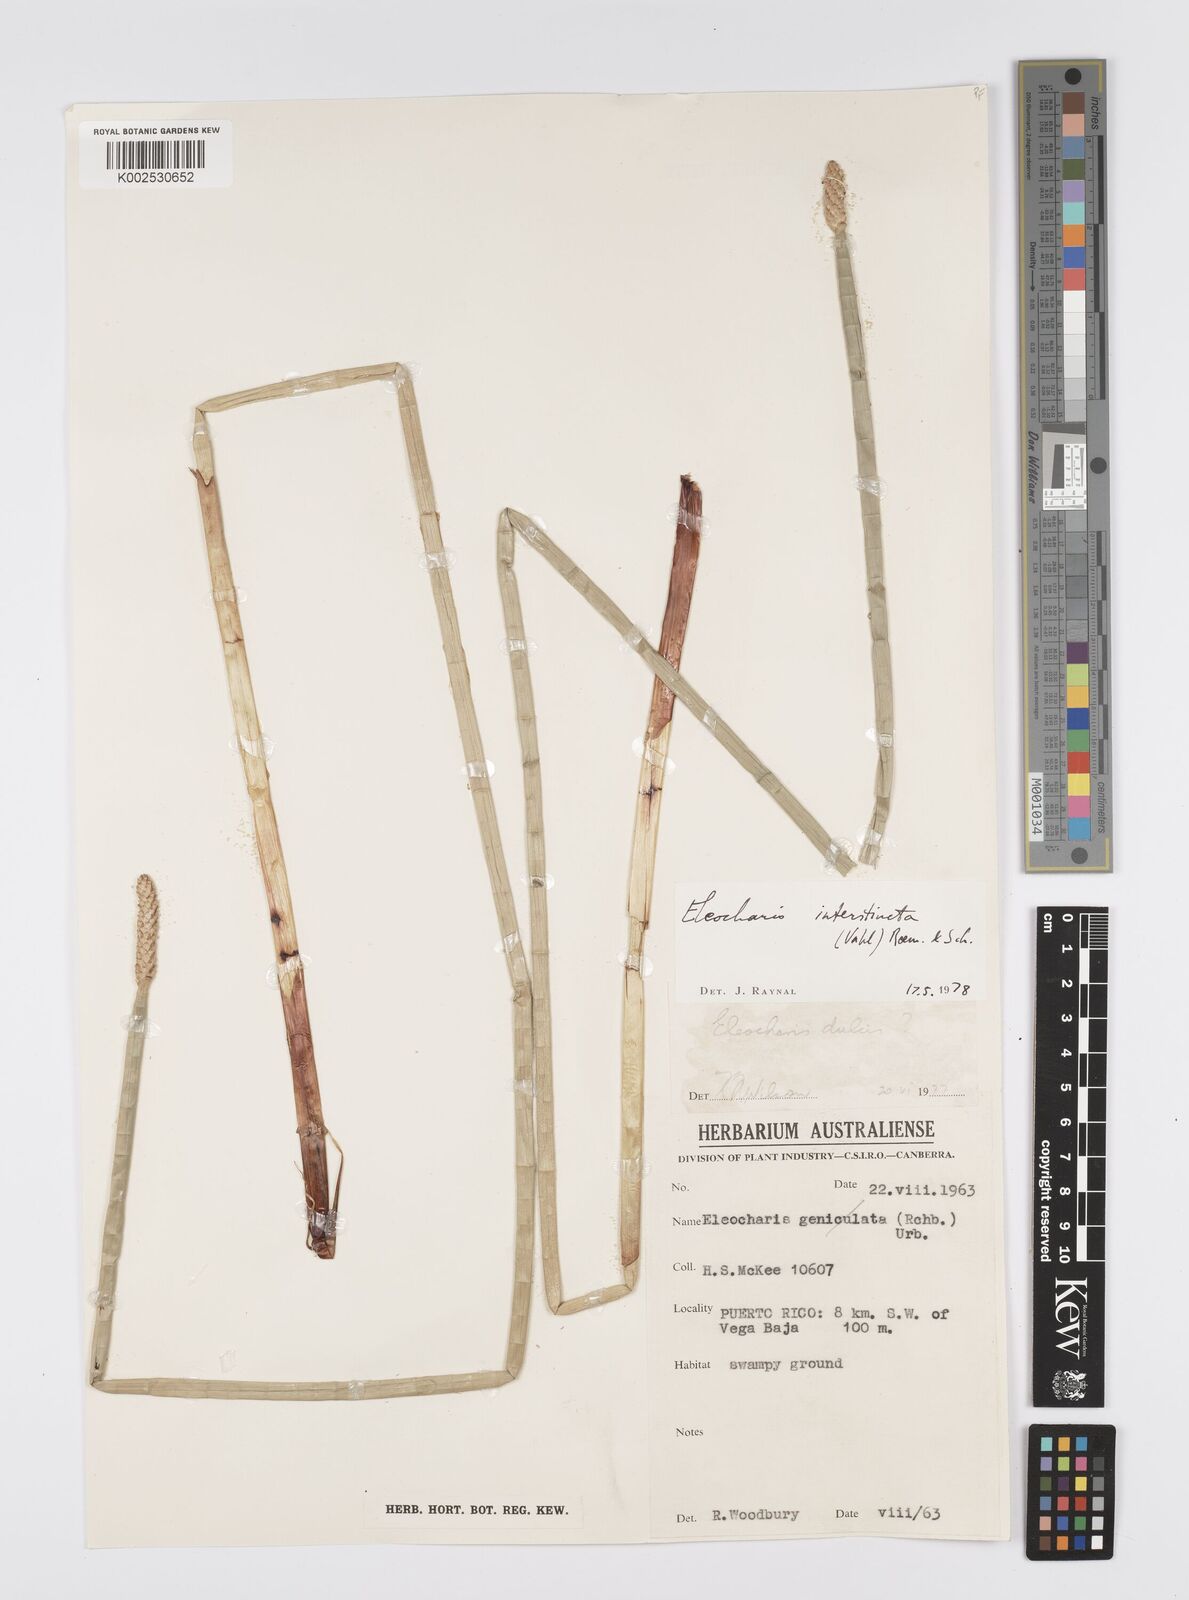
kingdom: Plantae
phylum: Tracheophyta
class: Liliopsida
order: Poales
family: Cyperaceae
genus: Eleocharis
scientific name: Eleocharis interstincta
